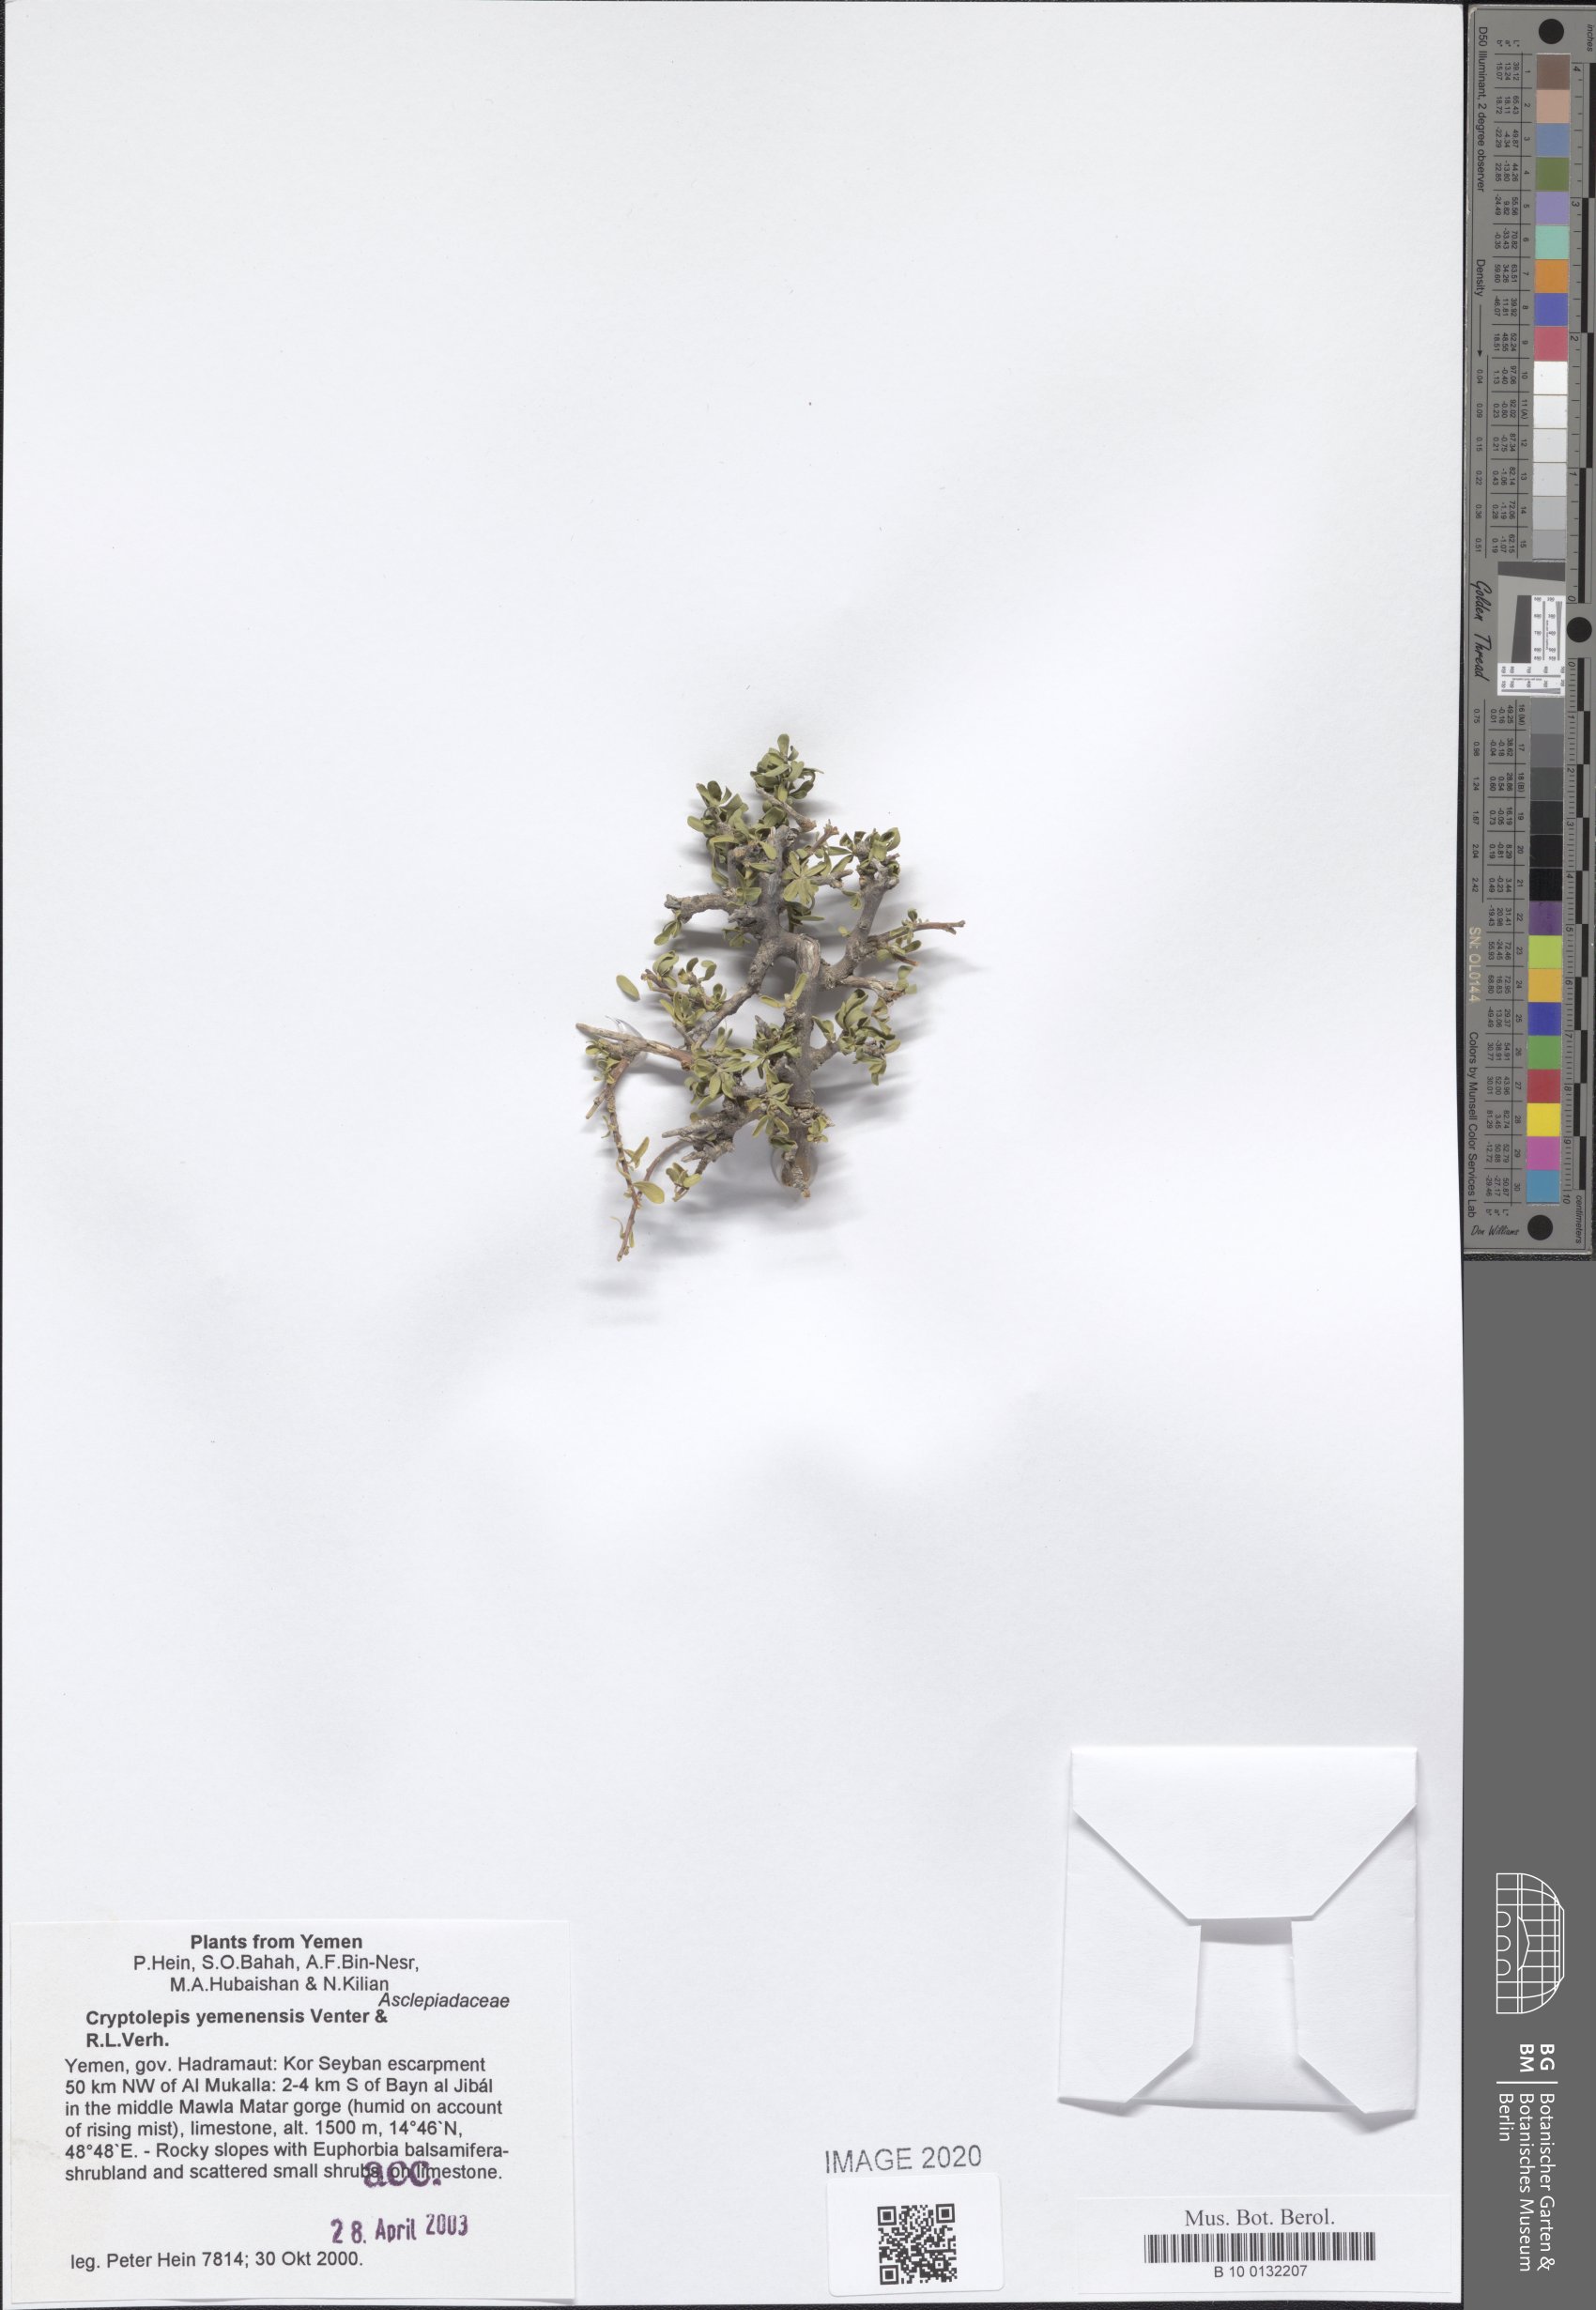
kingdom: Plantae
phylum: Tracheophyta
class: Magnoliopsida
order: Gentianales
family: Apocynaceae
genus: Cryptolepis
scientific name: Cryptolepis yemenensis
